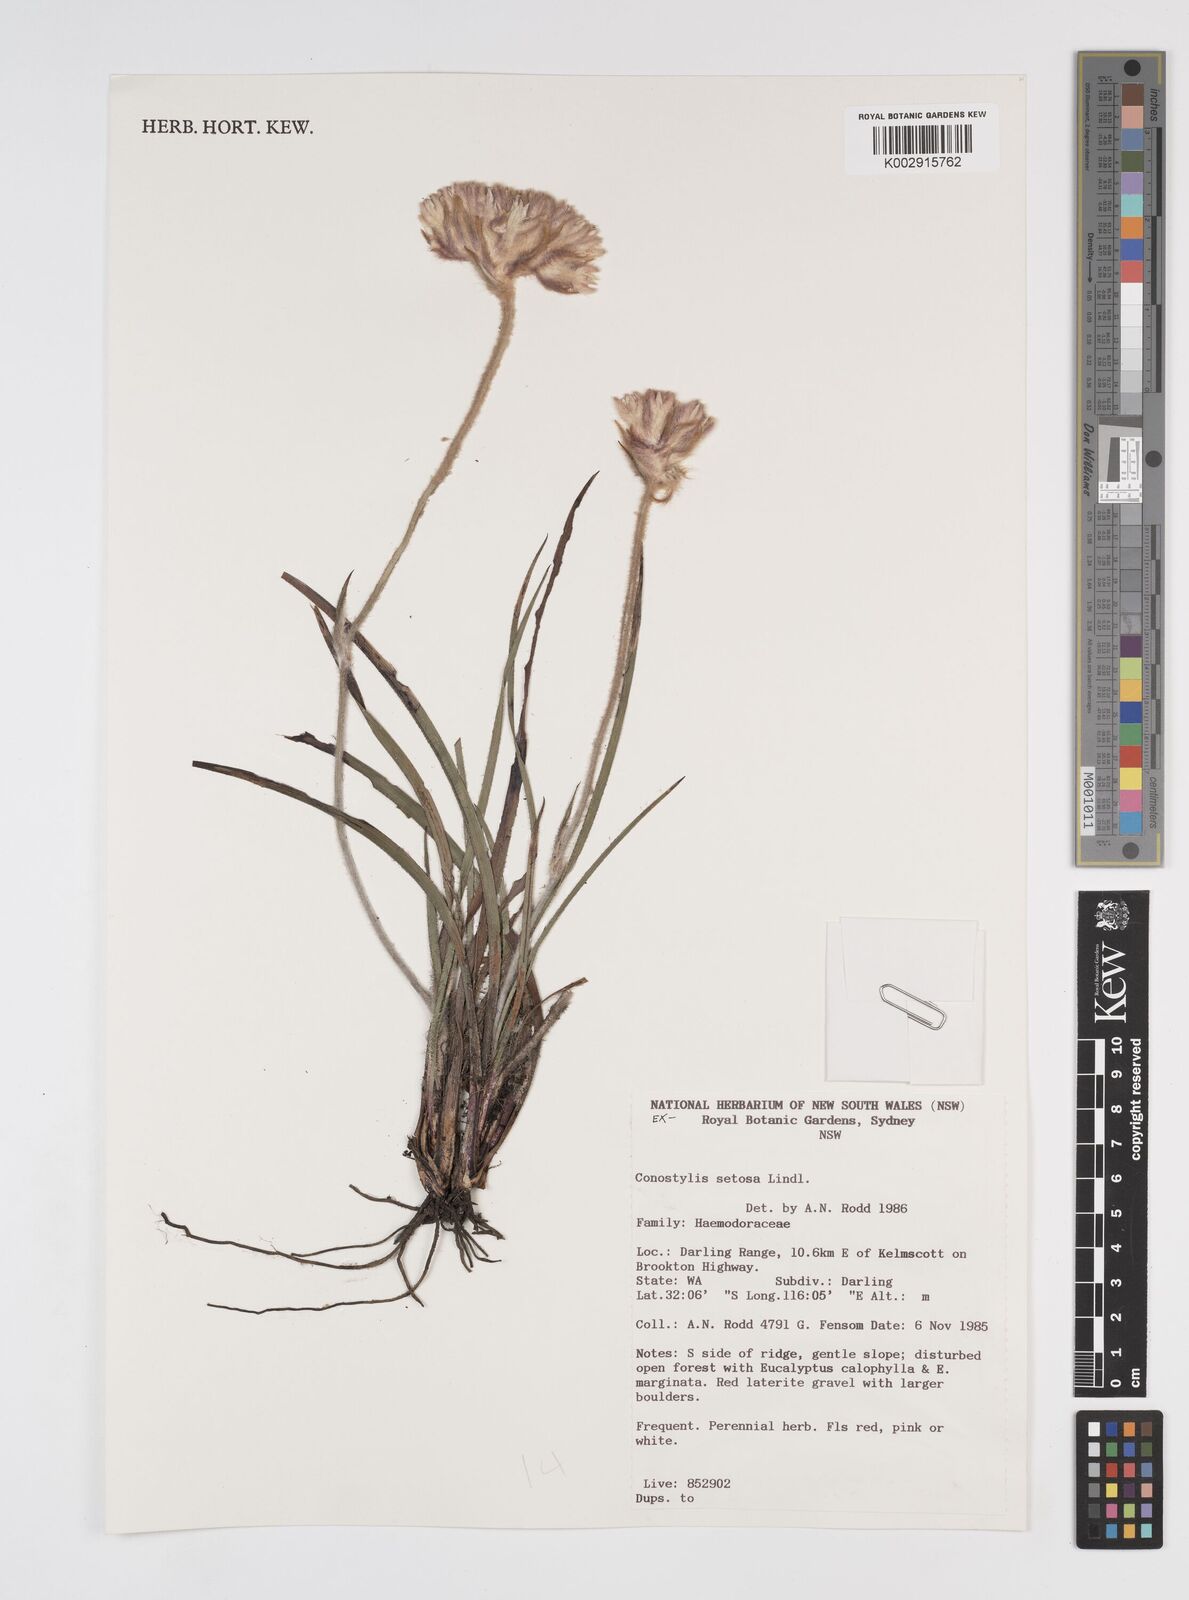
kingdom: Plantae
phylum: Tracheophyta
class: Liliopsida
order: Commelinales
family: Haemodoraceae
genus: Conostylis
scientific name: Conostylis setosa
